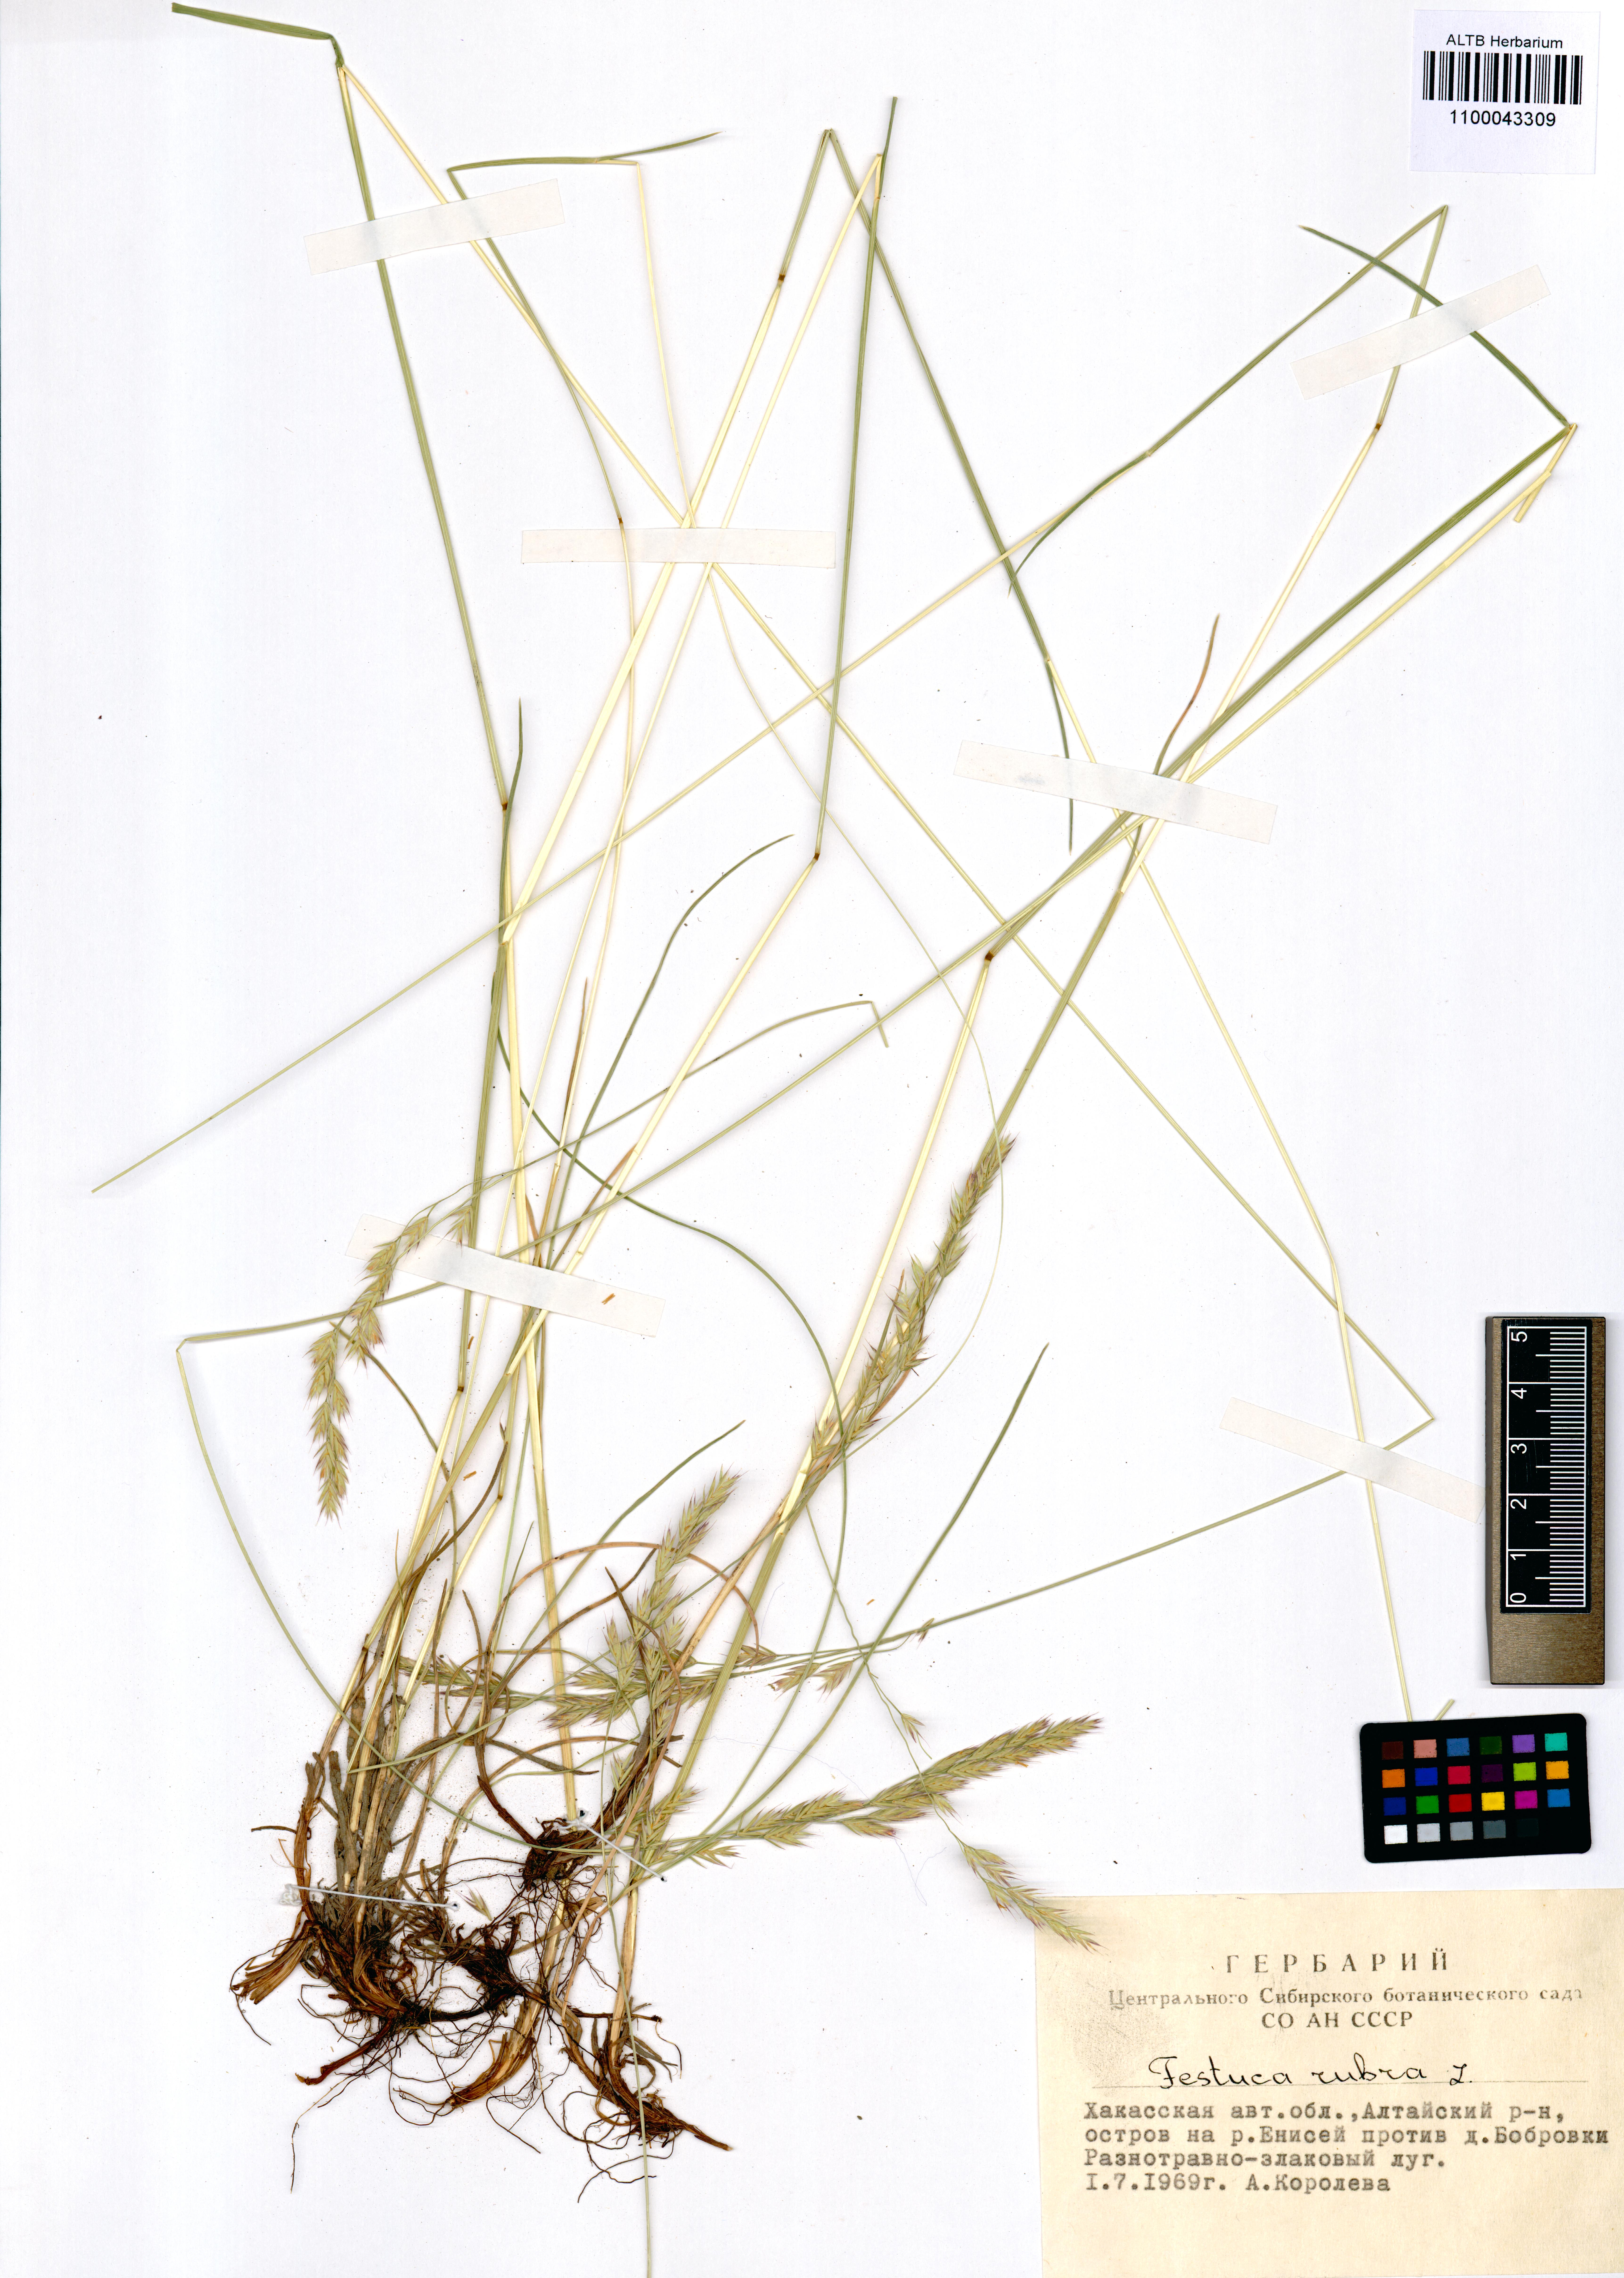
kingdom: Plantae
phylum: Tracheophyta
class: Liliopsida
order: Poales
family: Poaceae
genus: Festuca
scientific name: Festuca rubra
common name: Red fescue
